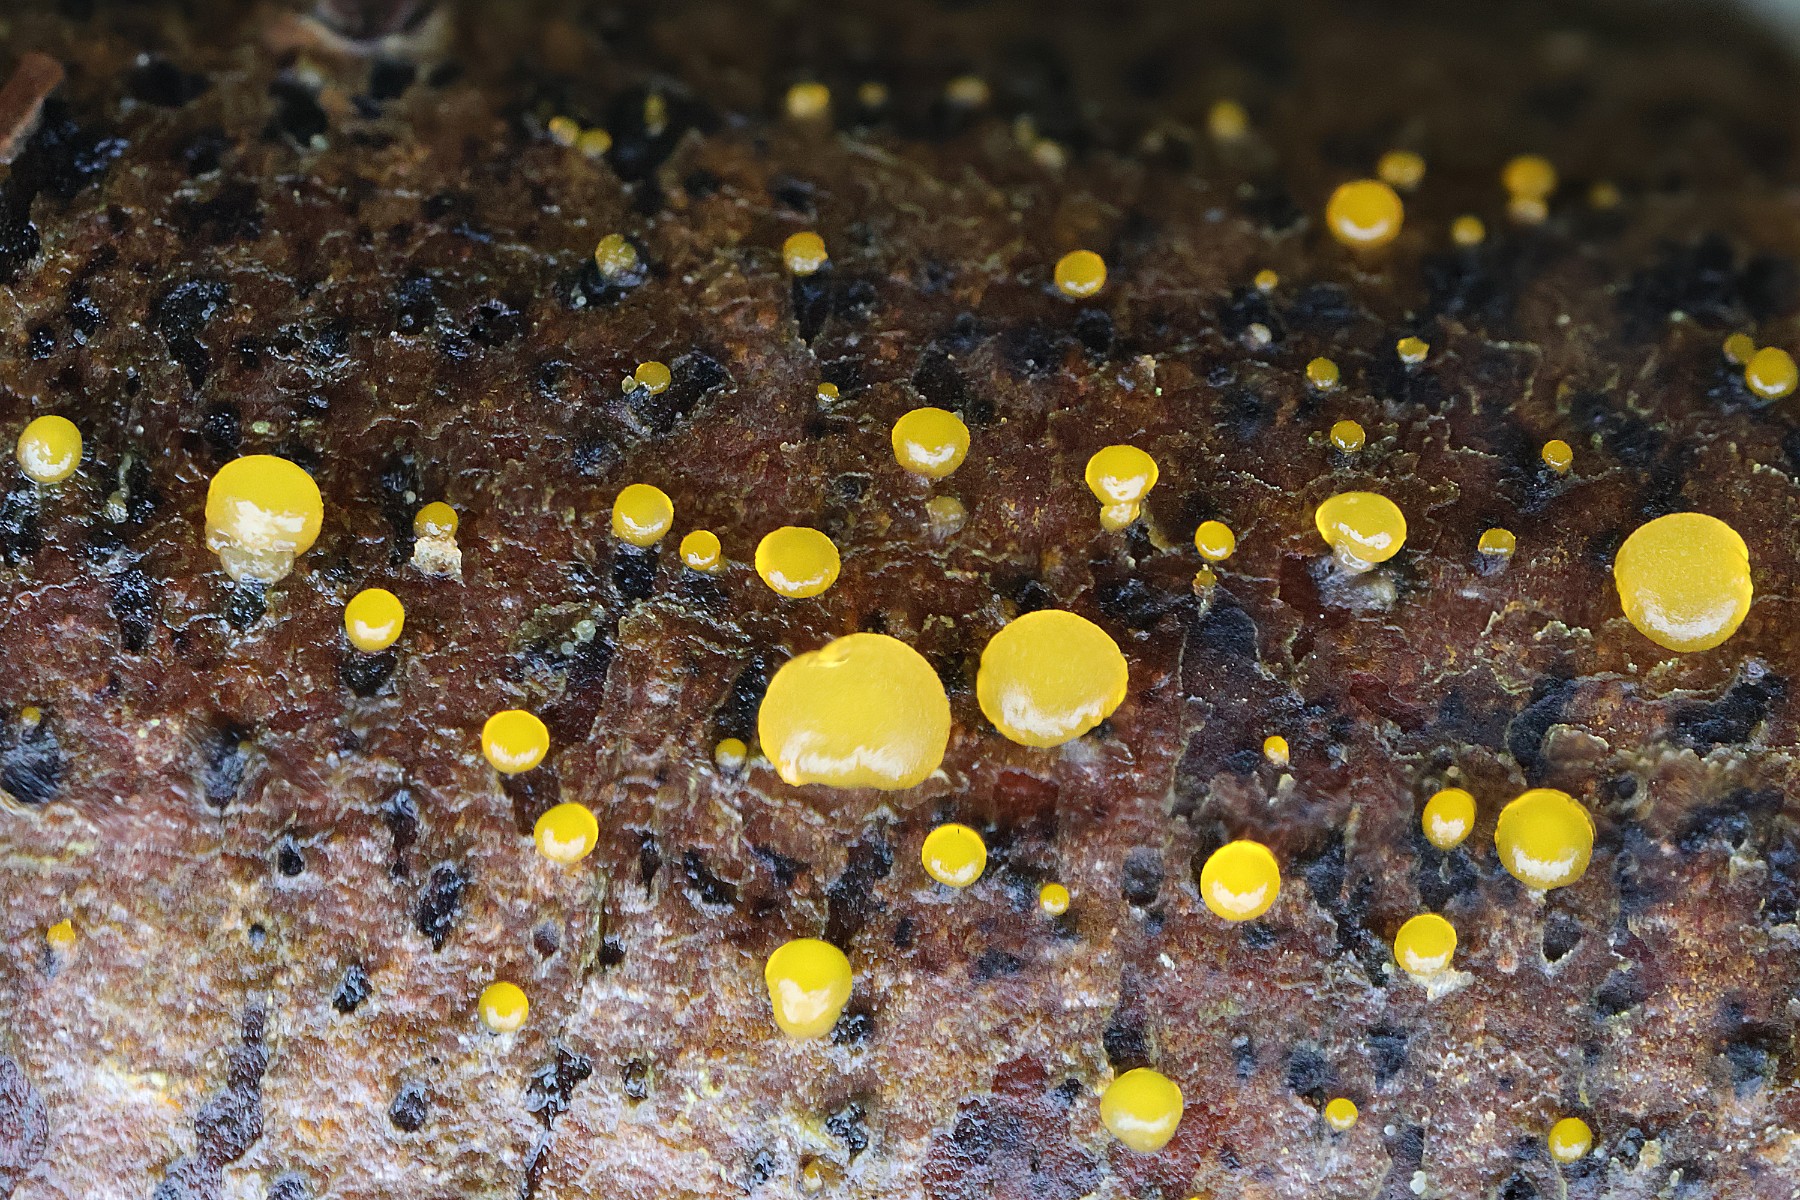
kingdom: Fungi
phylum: Basidiomycota
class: Dacrymycetes
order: Dacrymycetales
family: Dacrymycetaceae
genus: Dacrymyces
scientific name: Dacrymyces
